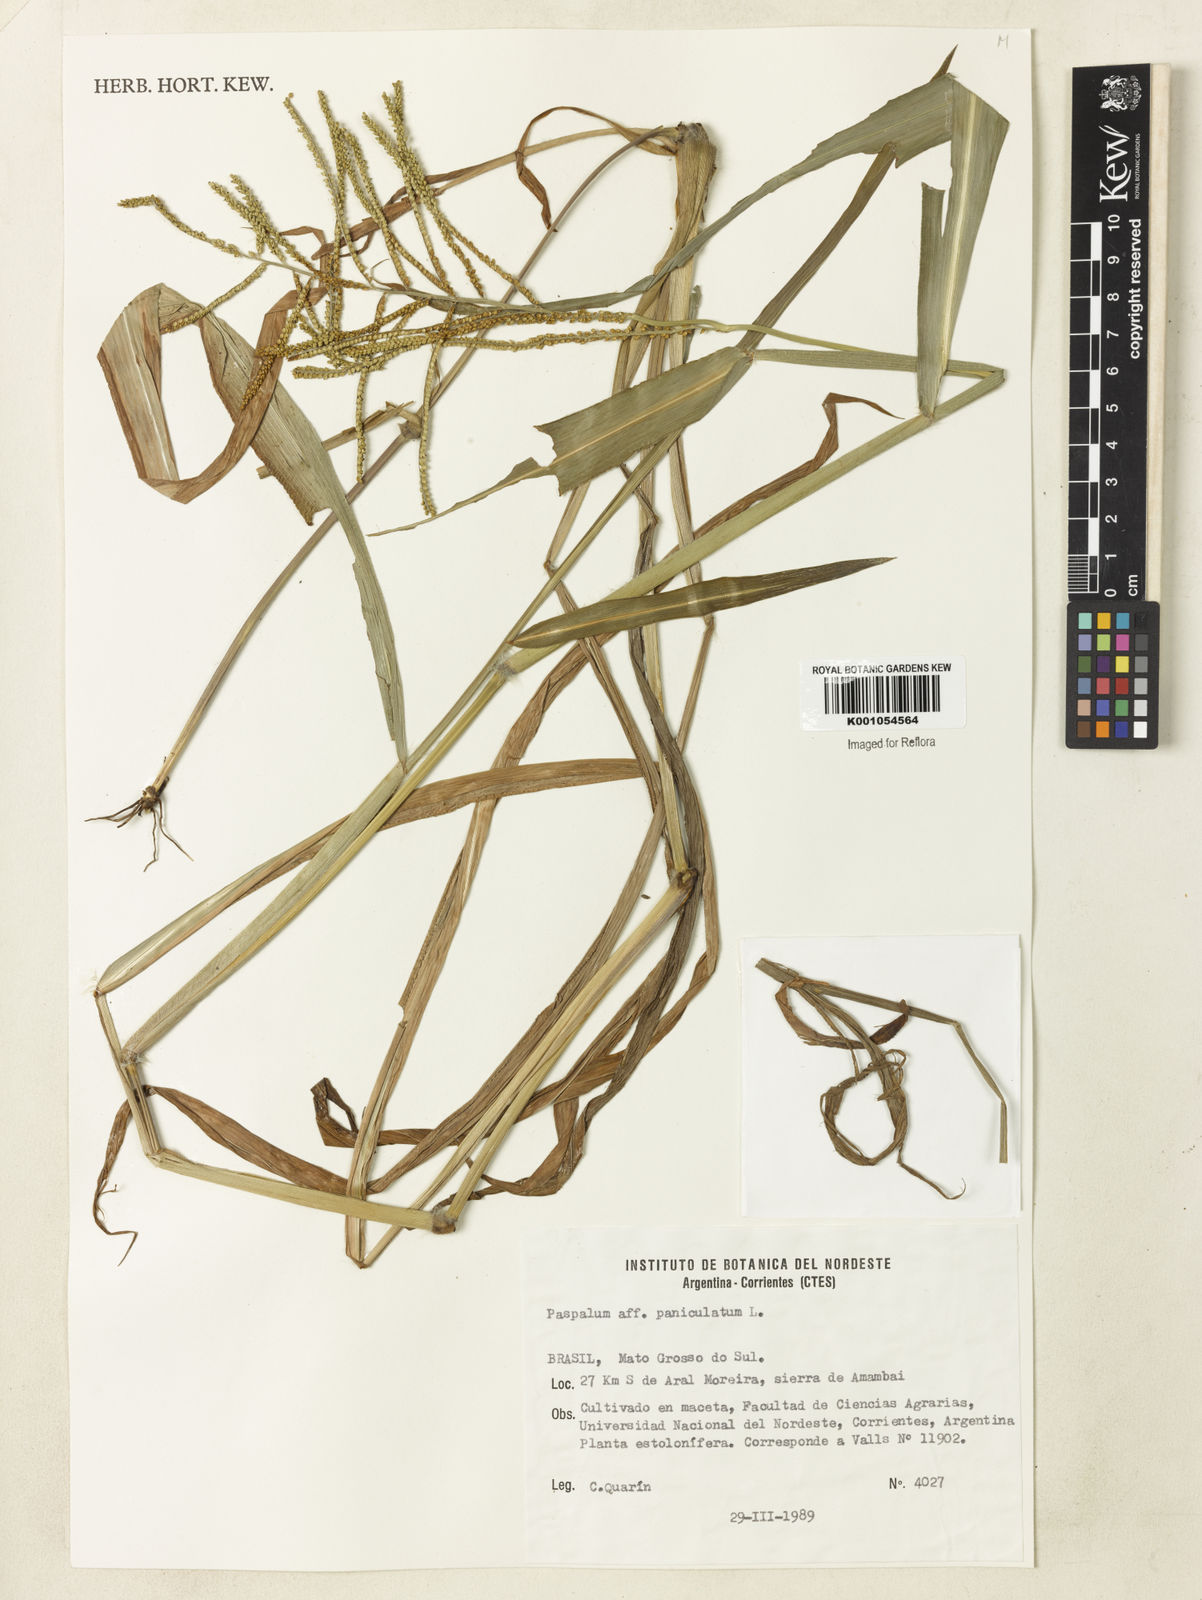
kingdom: Plantae
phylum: Tracheophyta
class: Liliopsida
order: Poales
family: Poaceae
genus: Paspalum
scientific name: Paspalum paniculatum
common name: Arrocillo
